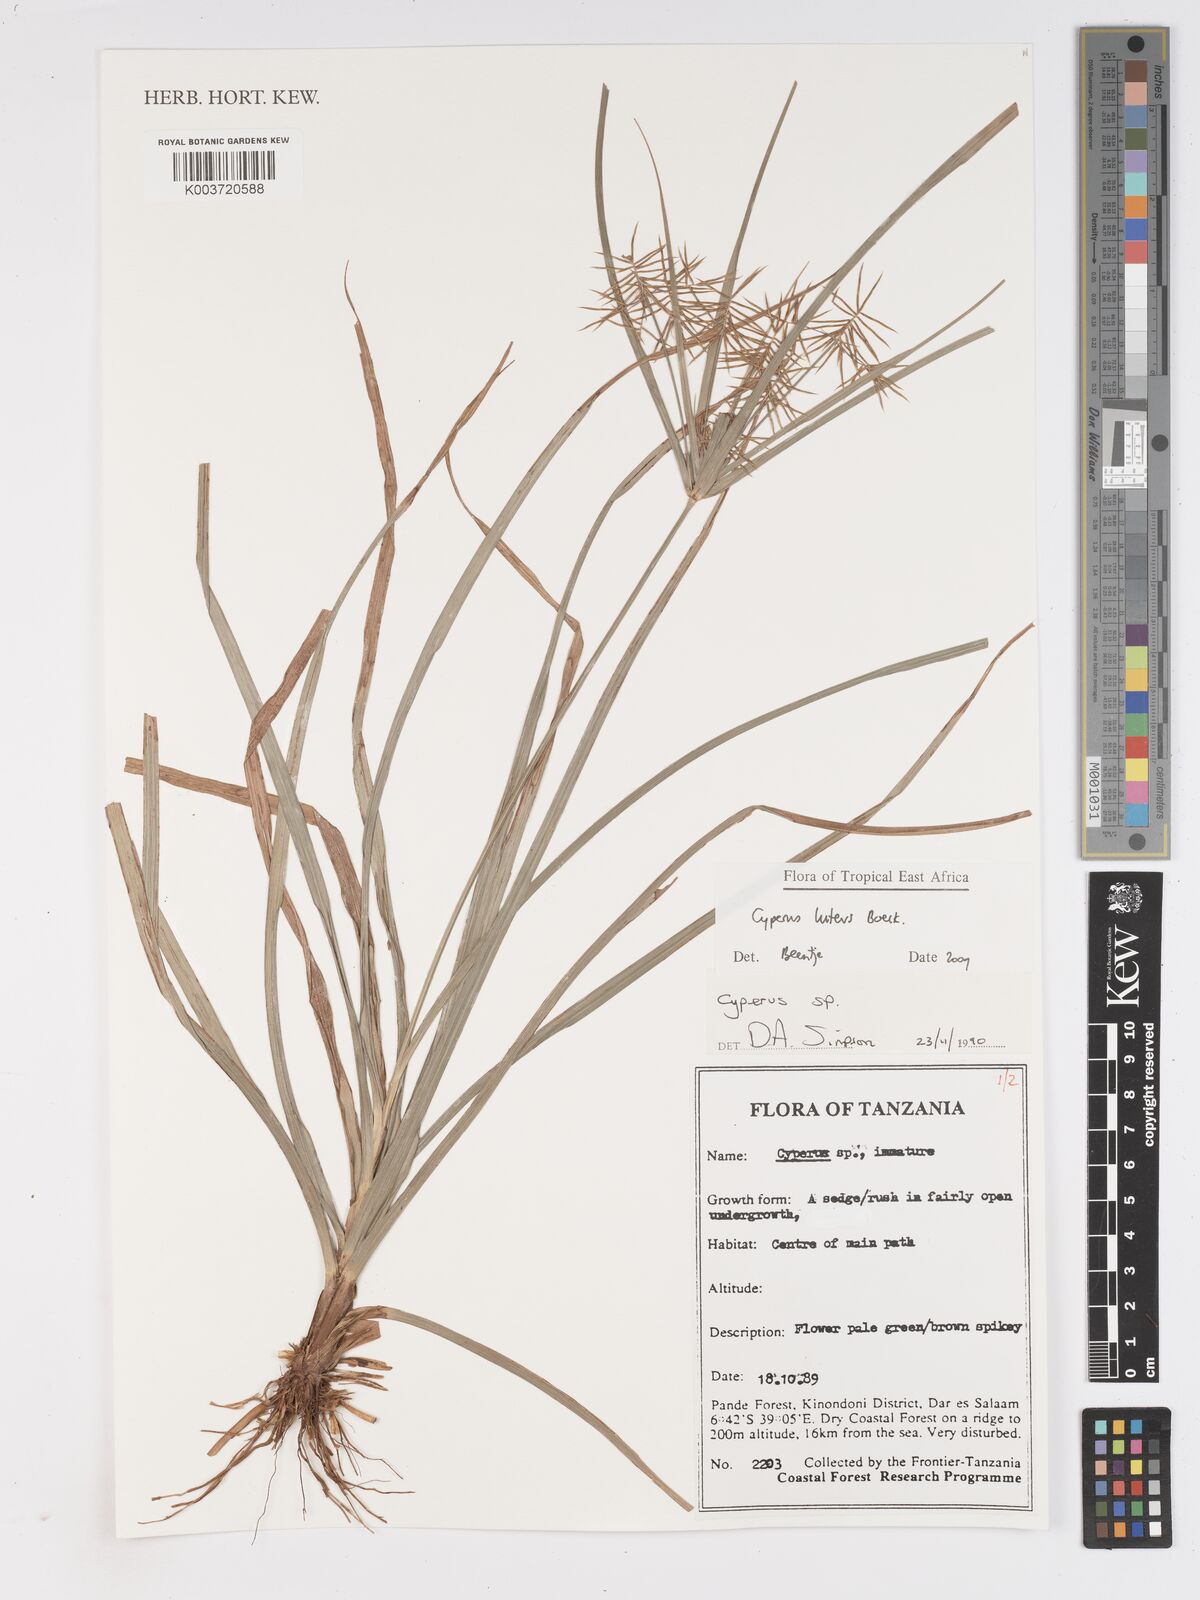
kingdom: Plantae
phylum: Tracheophyta
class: Liliopsida
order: Poales
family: Cyperaceae
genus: Cyperus
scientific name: Cyperus luteus
